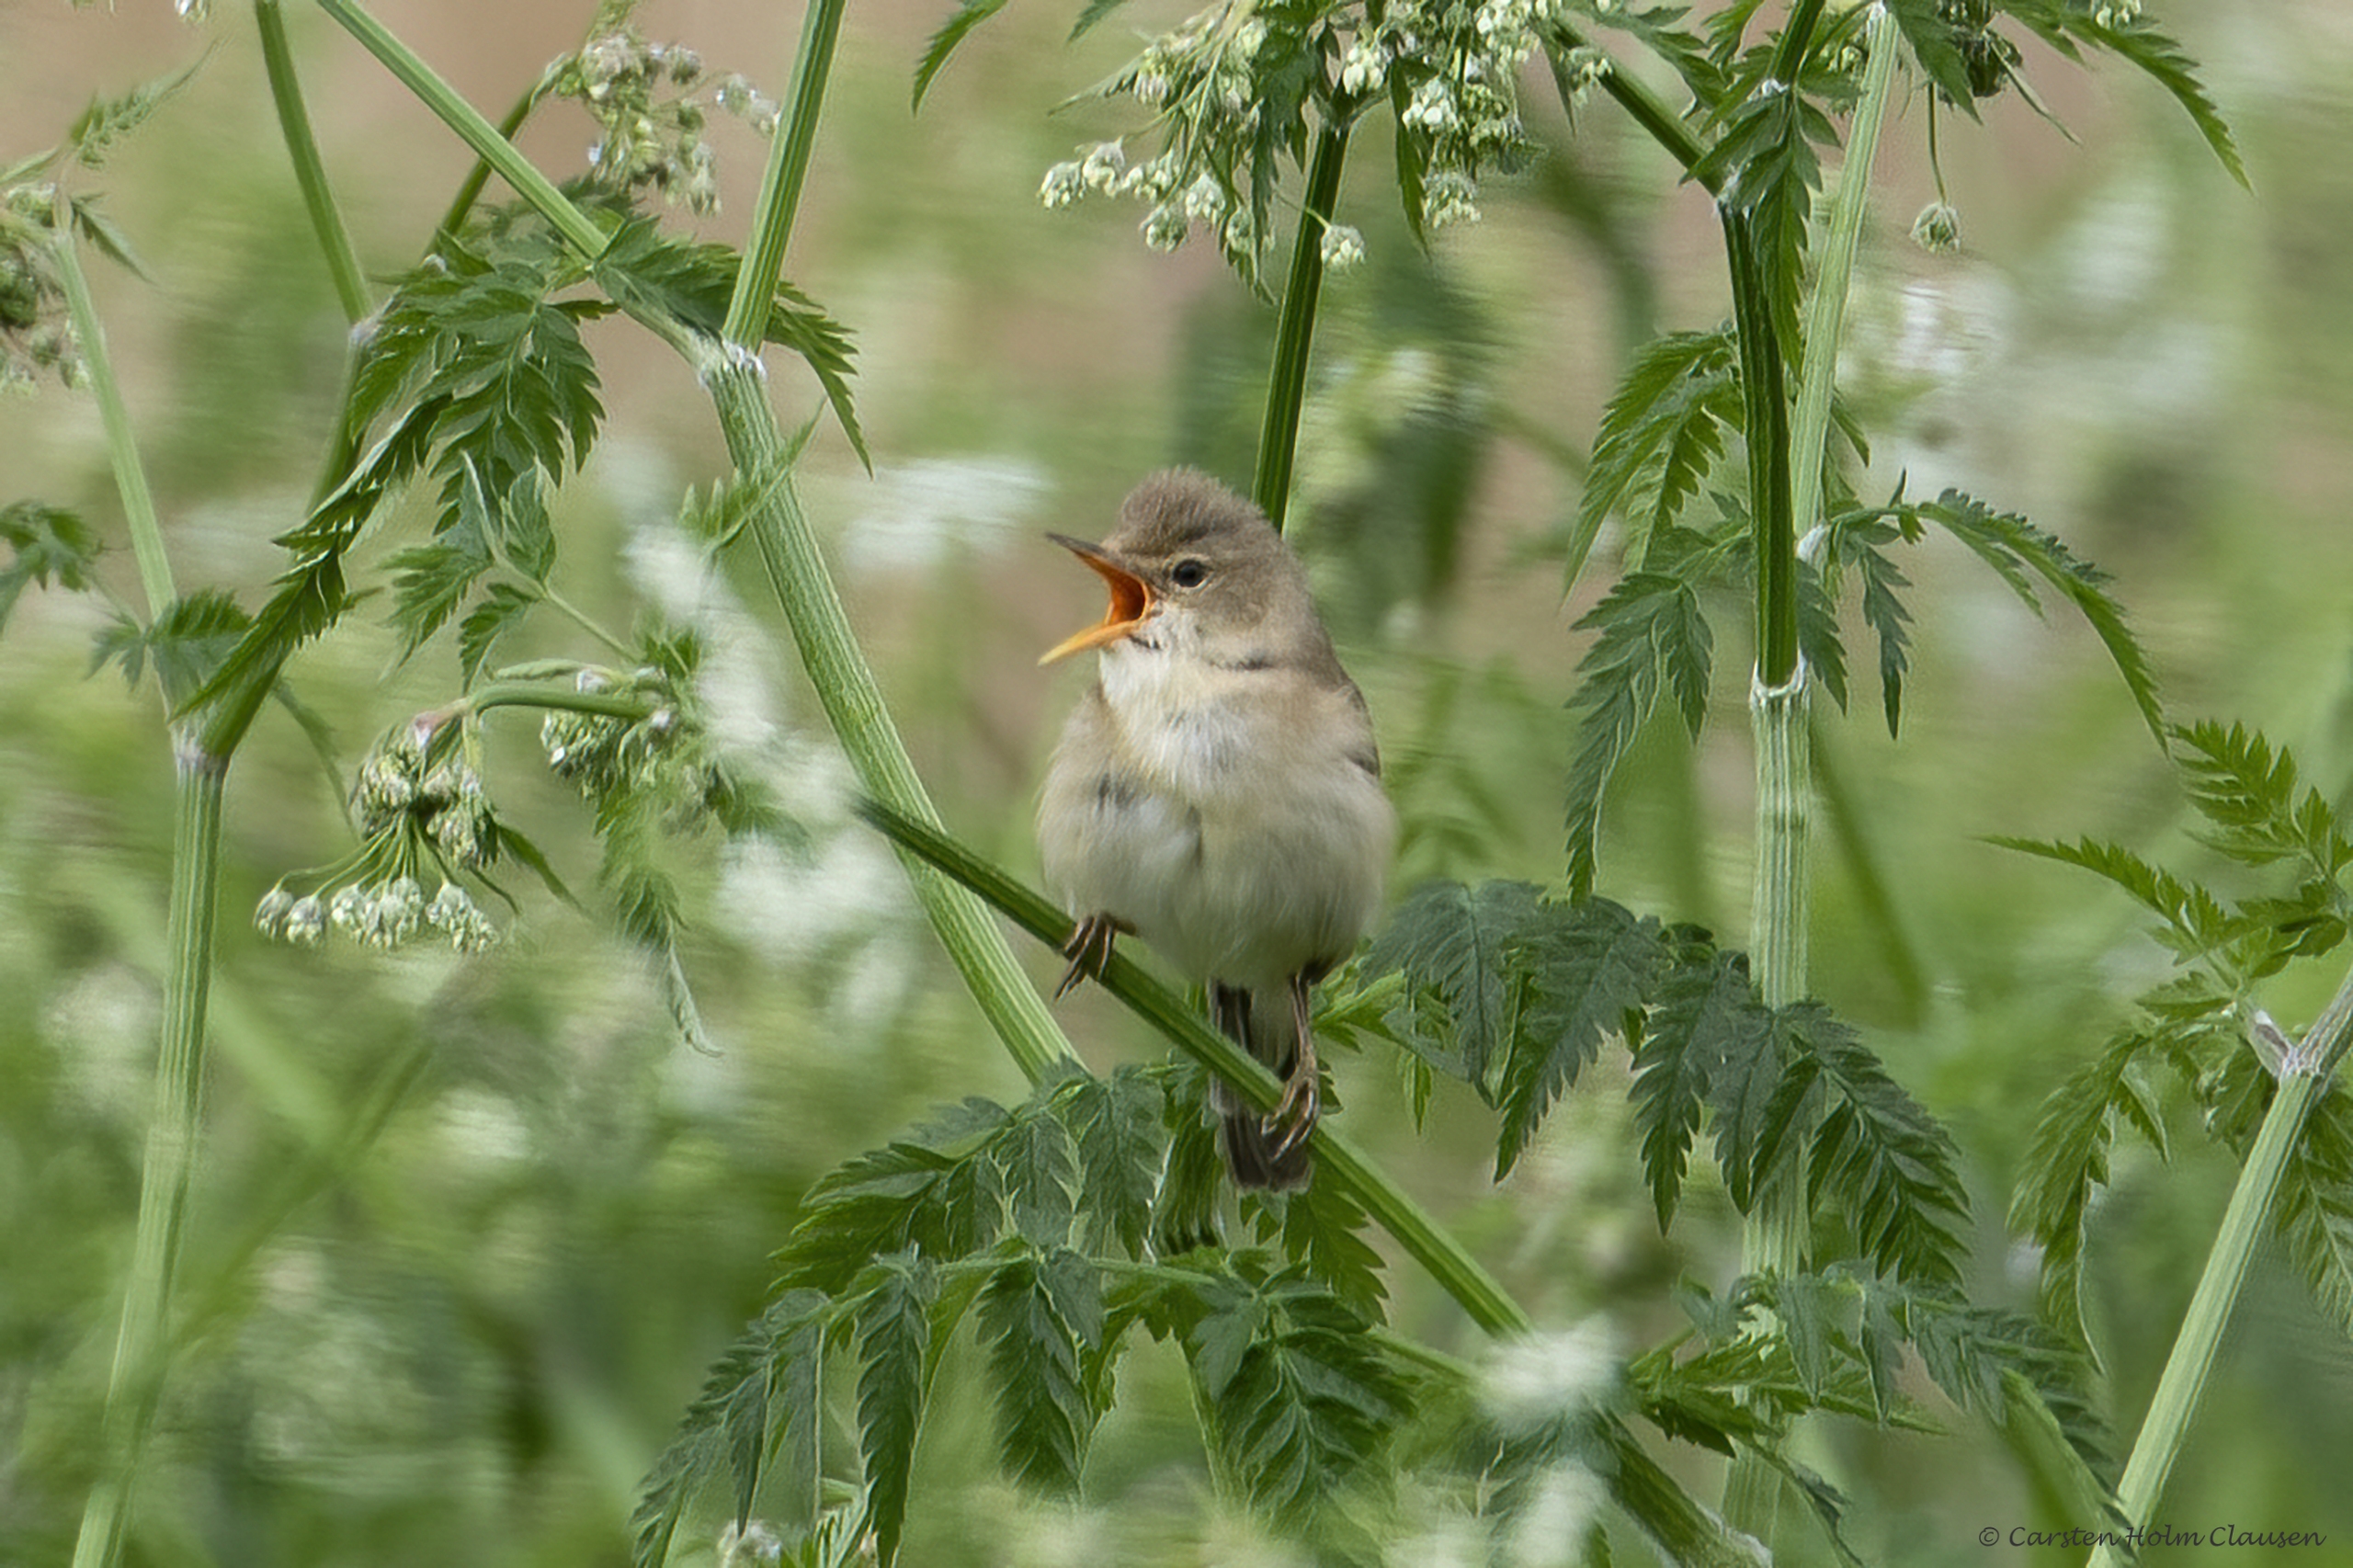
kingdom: Animalia
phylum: Chordata
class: Aves
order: Passeriformes
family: Acrocephalidae
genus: Acrocephalus
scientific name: Acrocephalus palustris
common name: Kærsanger
